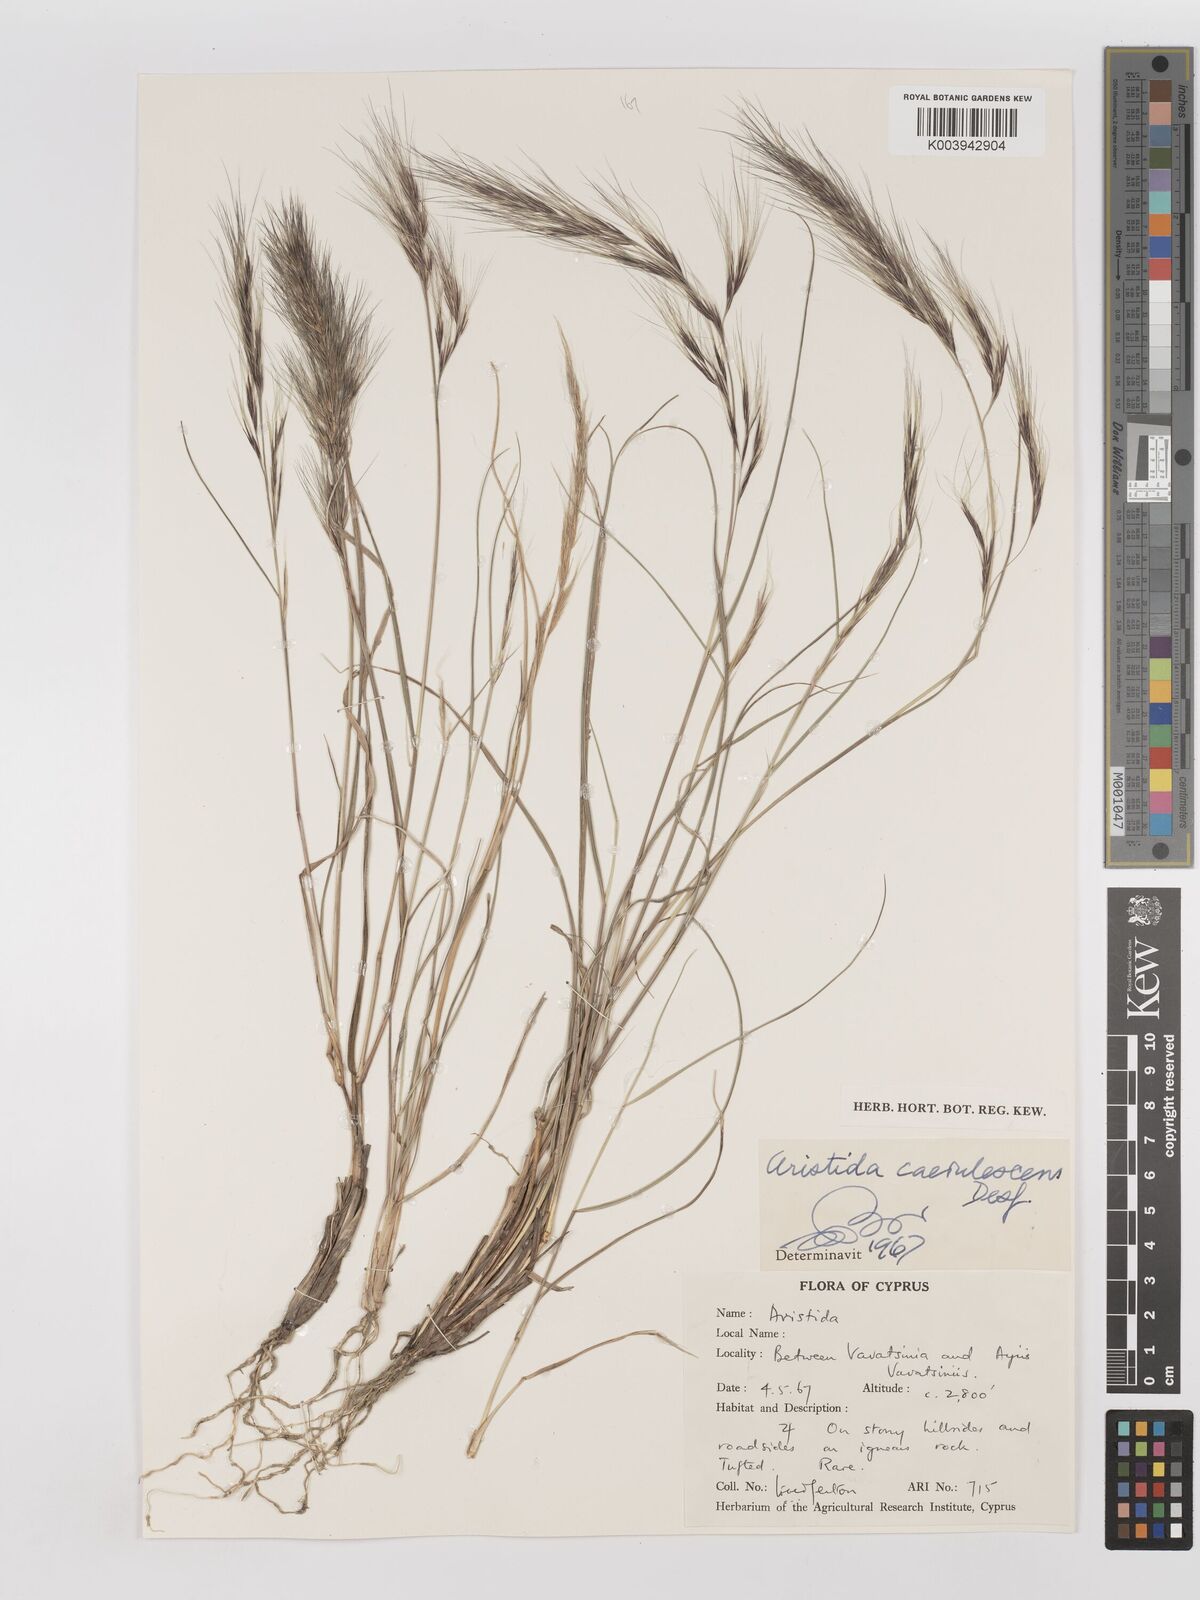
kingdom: Plantae
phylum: Tracheophyta
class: Liliopsida
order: Poales
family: Poaceae
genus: Aristida
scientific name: Aristida adscensionis
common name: Sixweeks threeawn
